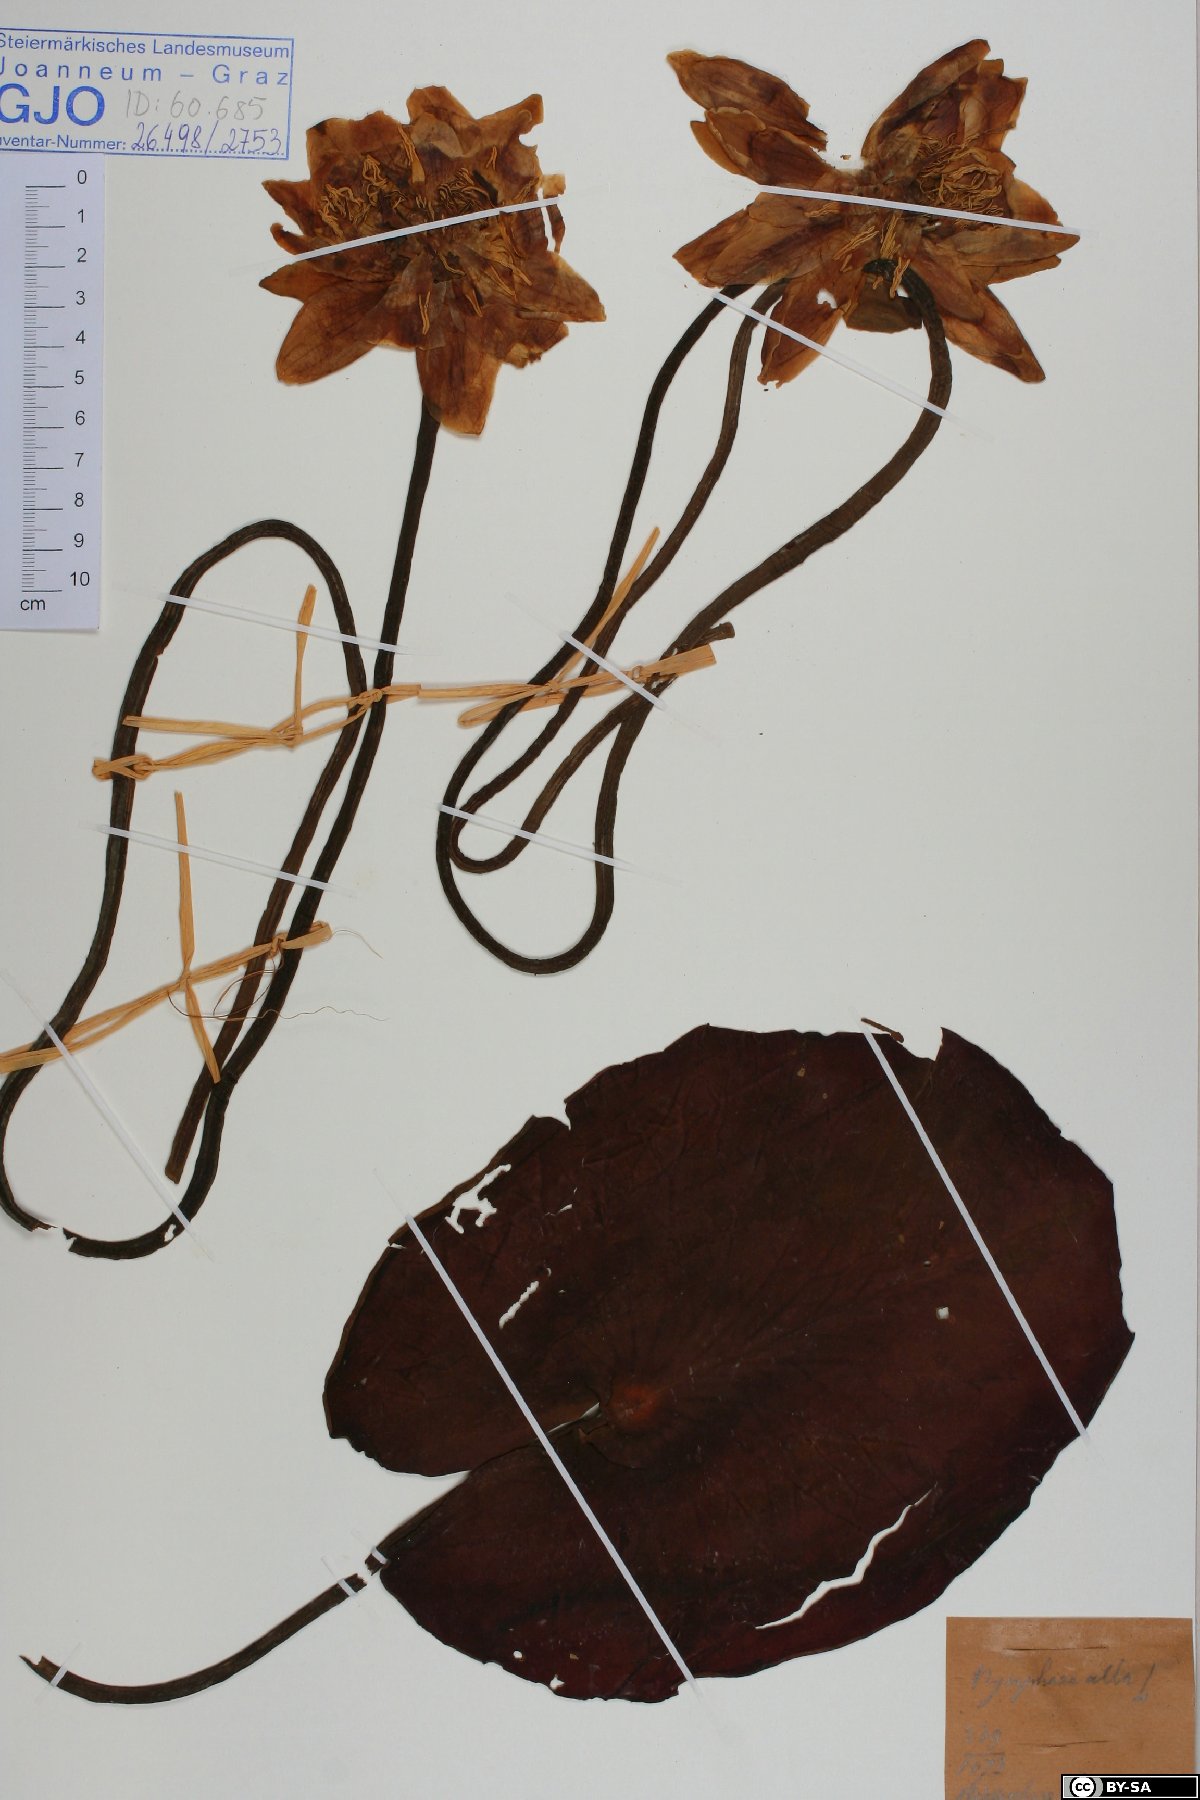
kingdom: Plantae
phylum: Tracheophyta
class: Magnoliopsida
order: Nymphaeales
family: Nymphaeaceae
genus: Nymphaea
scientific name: Nymphaea alba
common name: White water-lily
